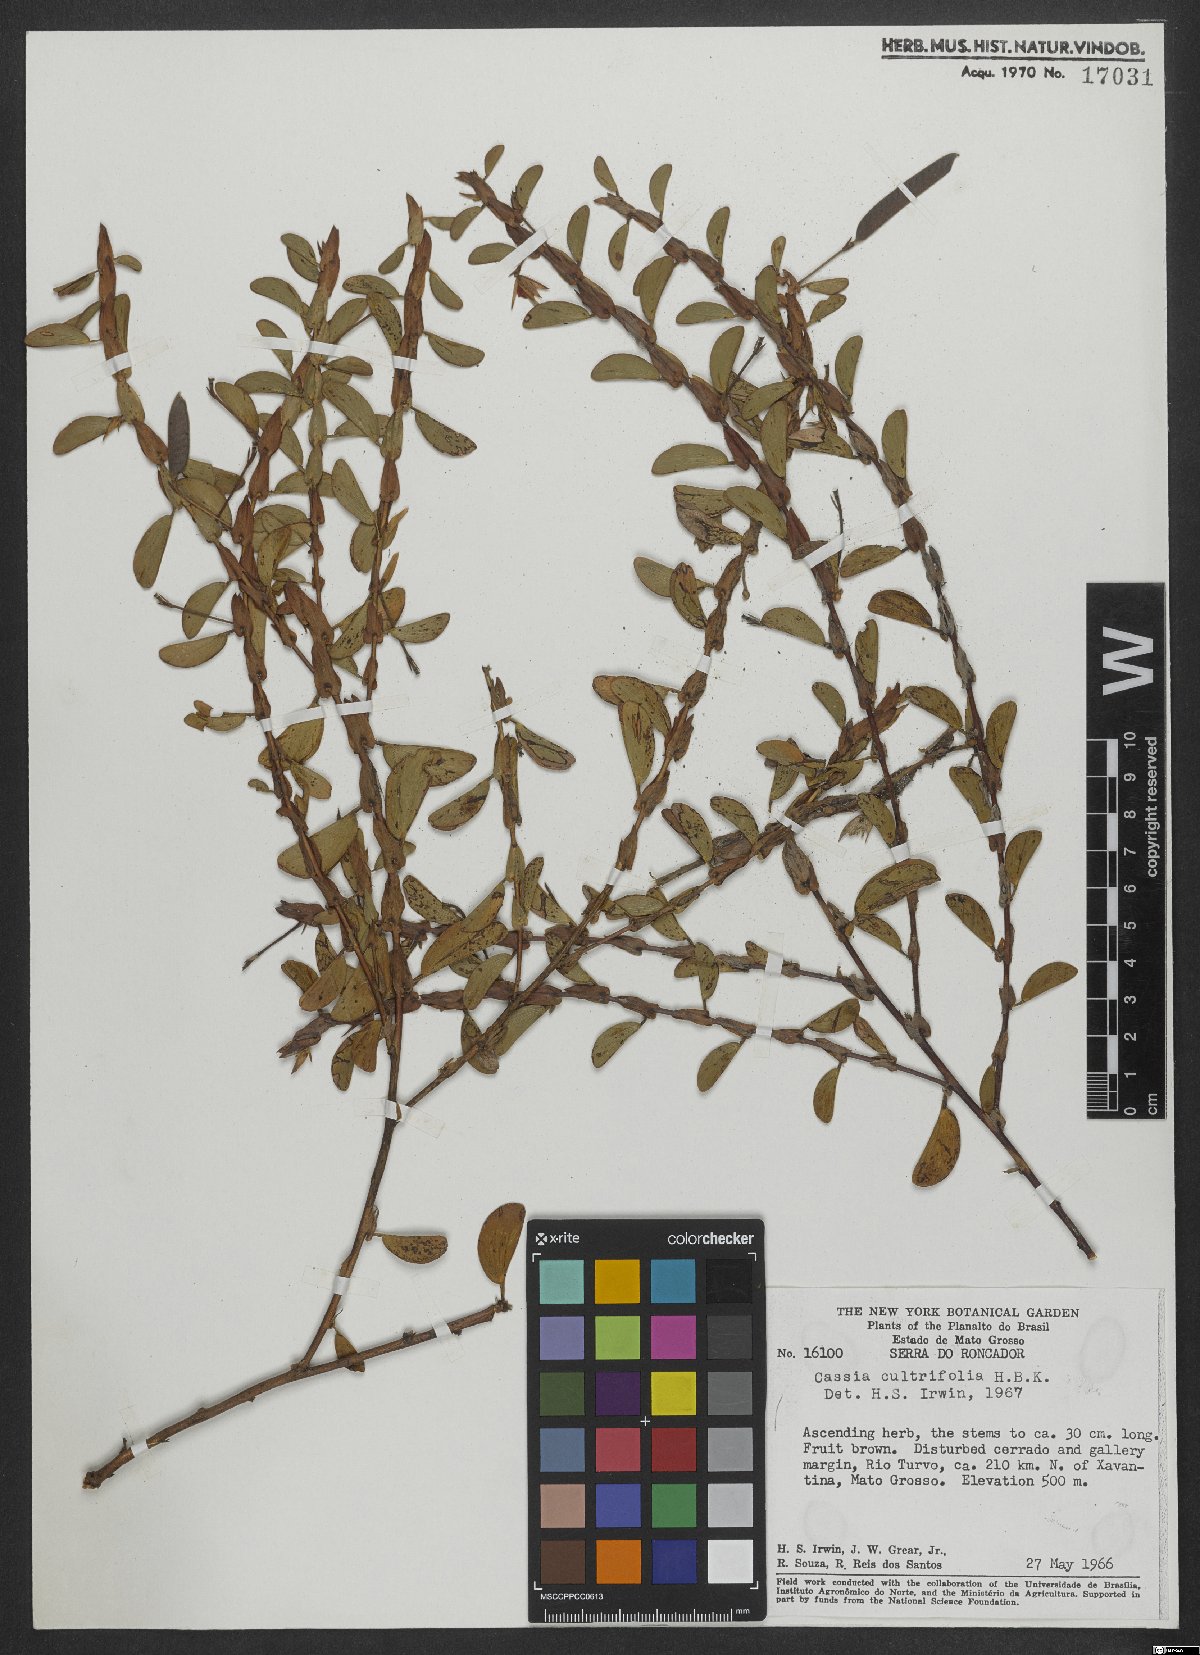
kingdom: Plantae
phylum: Tracheophyta
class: Magnoliopsida
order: Fabales
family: Fabaceae
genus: Chamaecrista
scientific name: Chamaecrista cultrifolia
